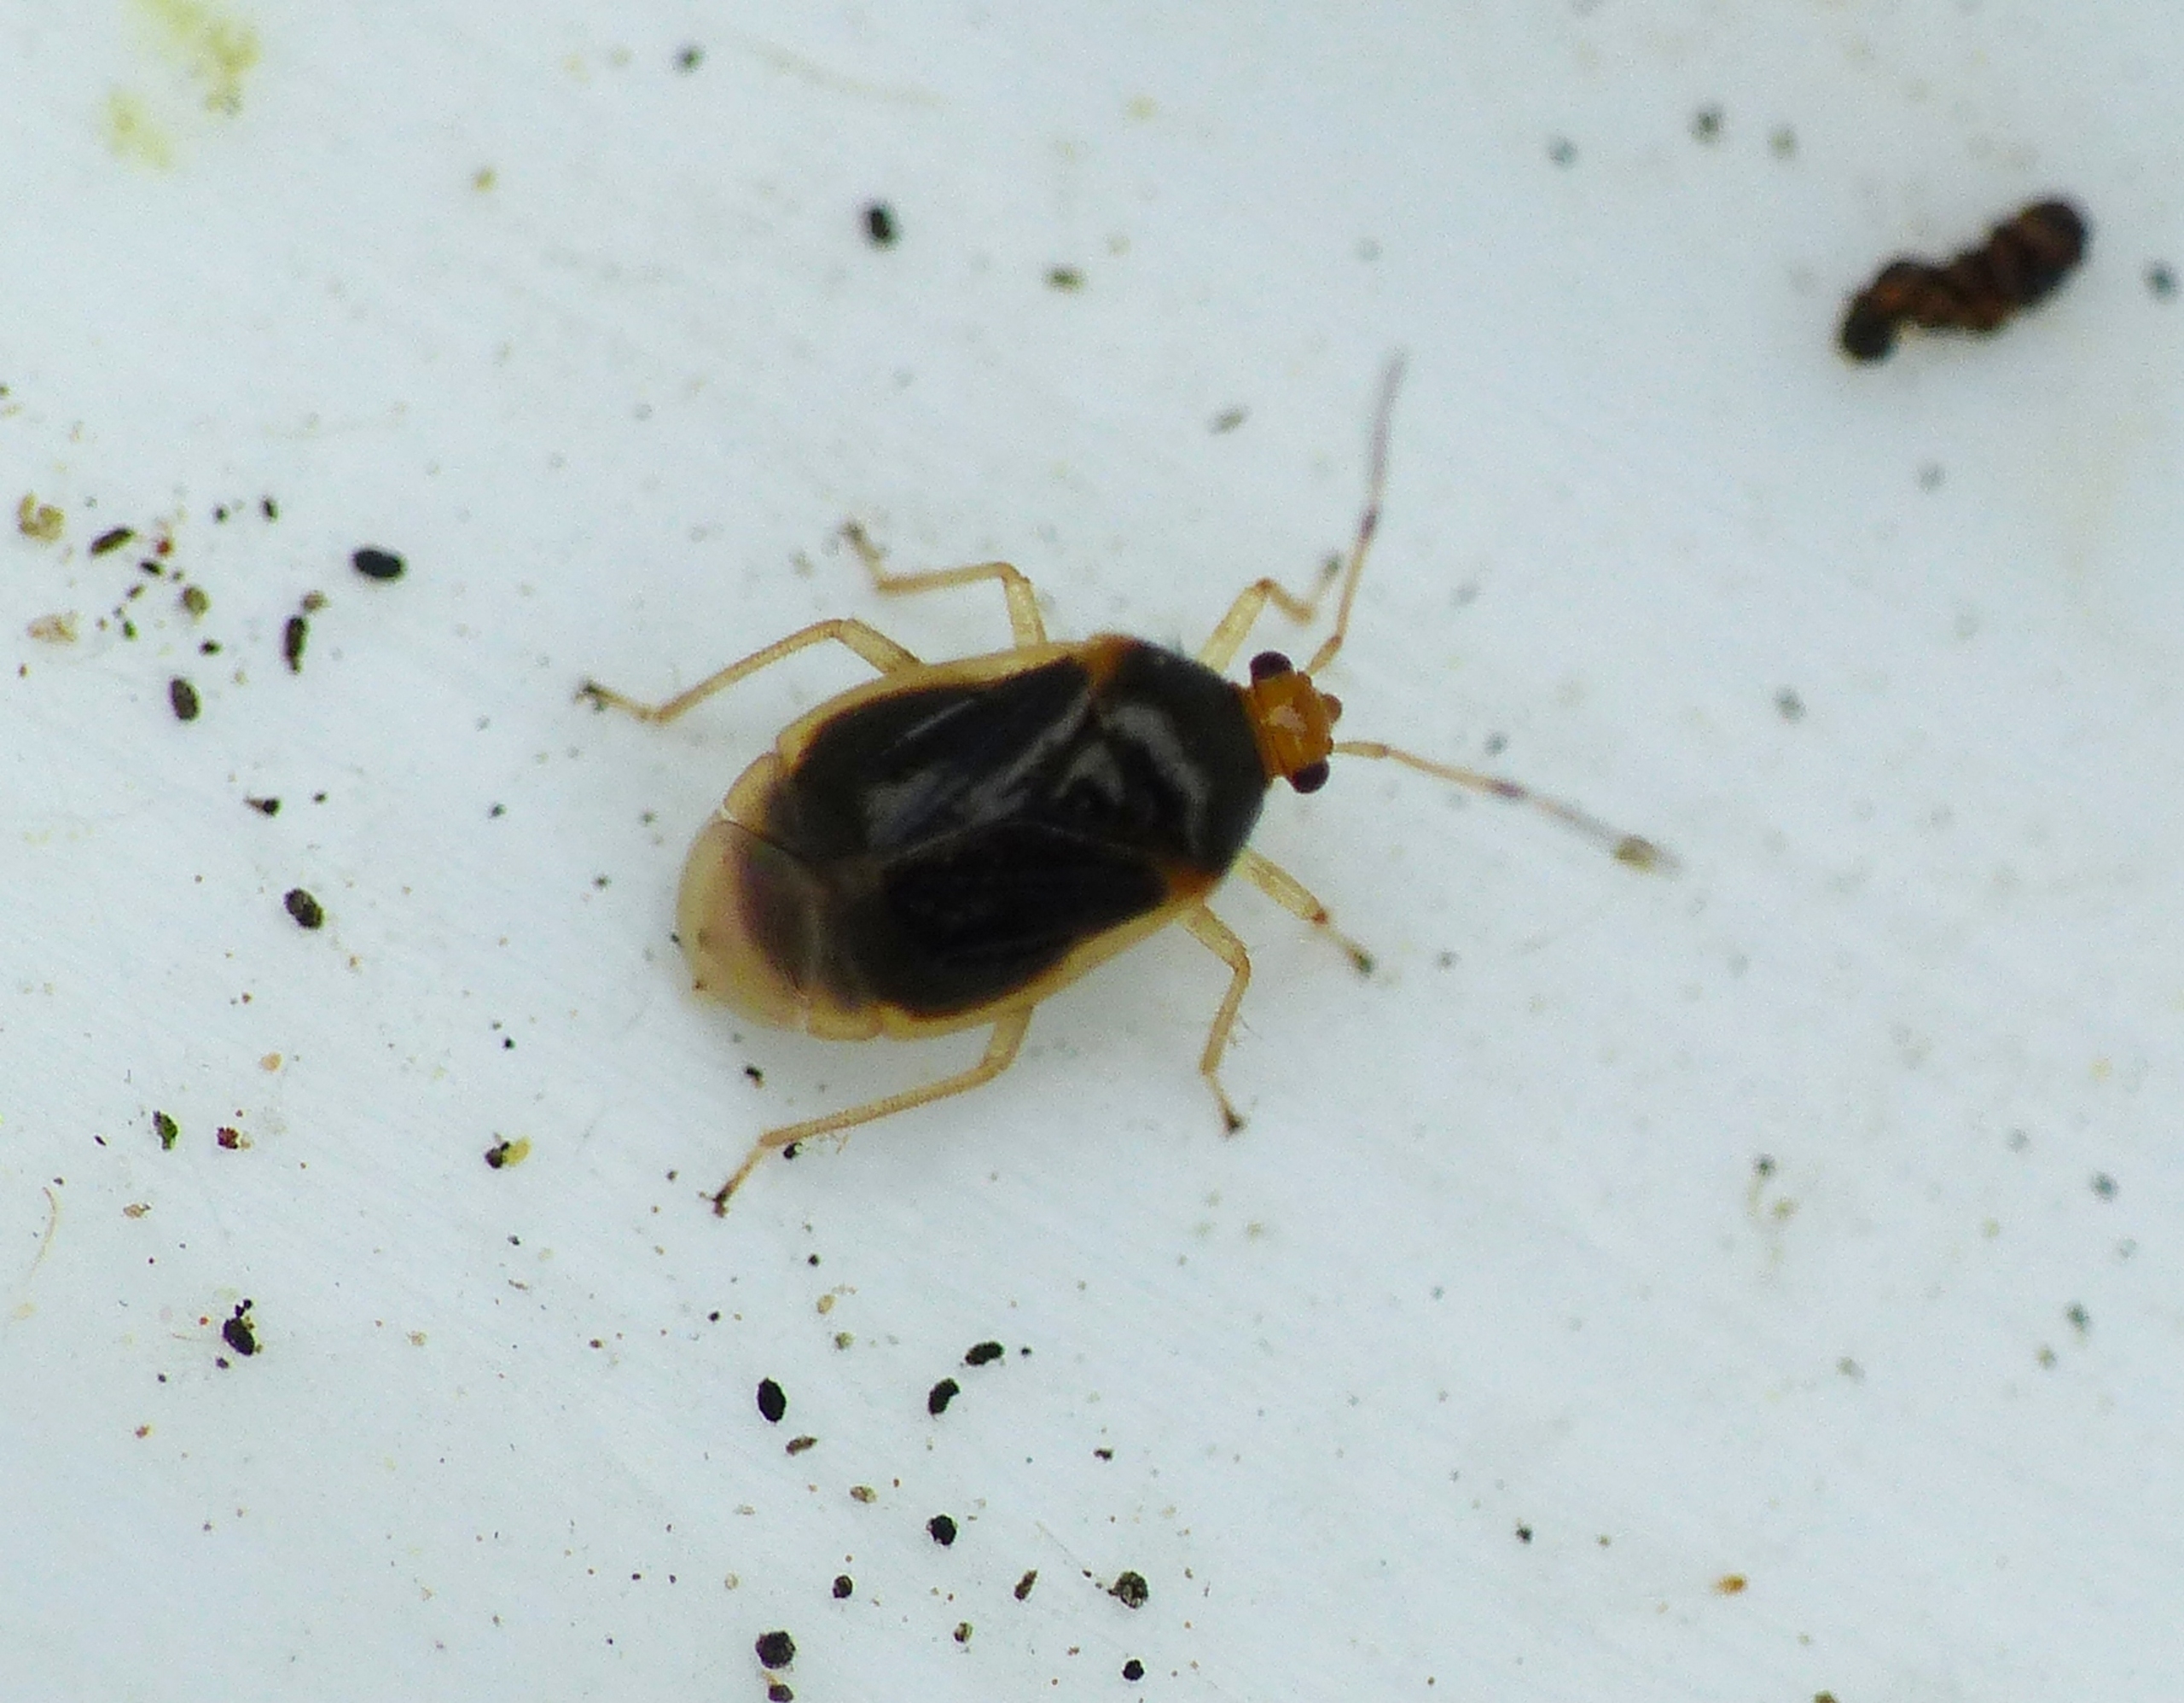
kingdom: Animalia
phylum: Arthropoda
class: Insecta
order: Hemiptera
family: Miridae
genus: Monalocoris
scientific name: Monalocoris filicis
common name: Mørk bregnetæge
